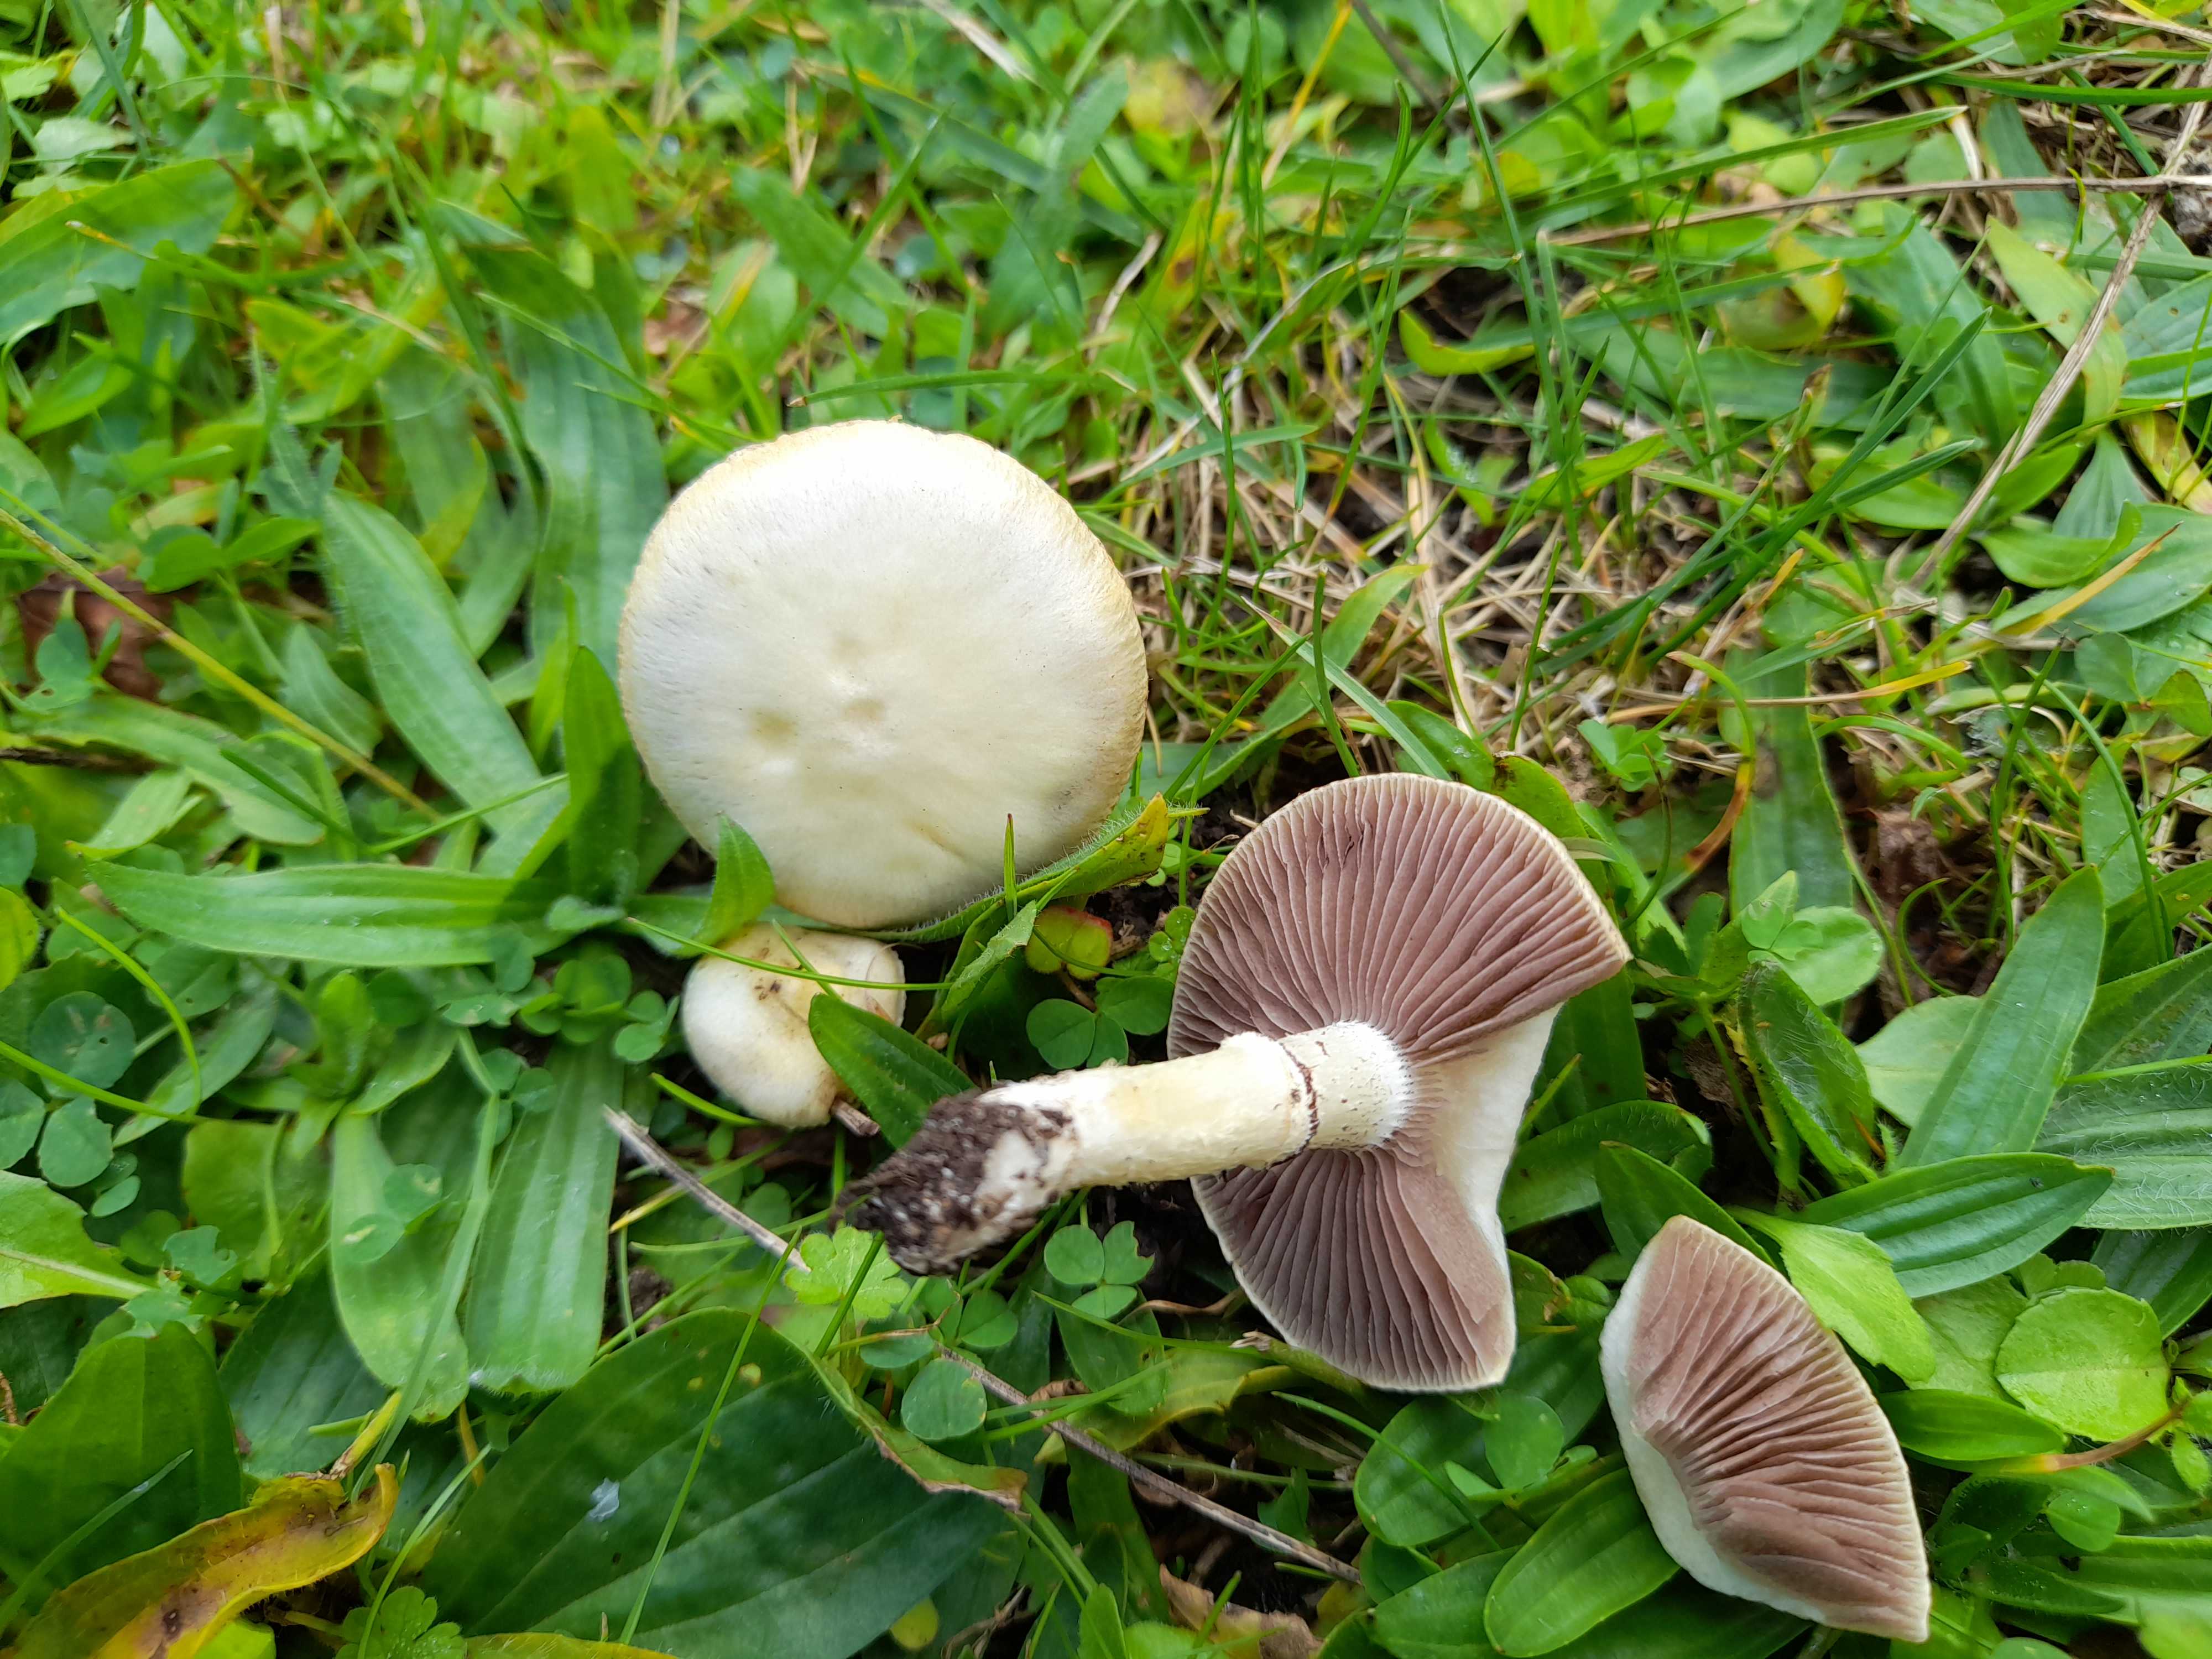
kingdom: Fungi
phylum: Basidiomycota
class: Agaricomycetes
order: Agaricales
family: Hymenogastraceae
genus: Psilocybe
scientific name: Psilocybe coronilla
